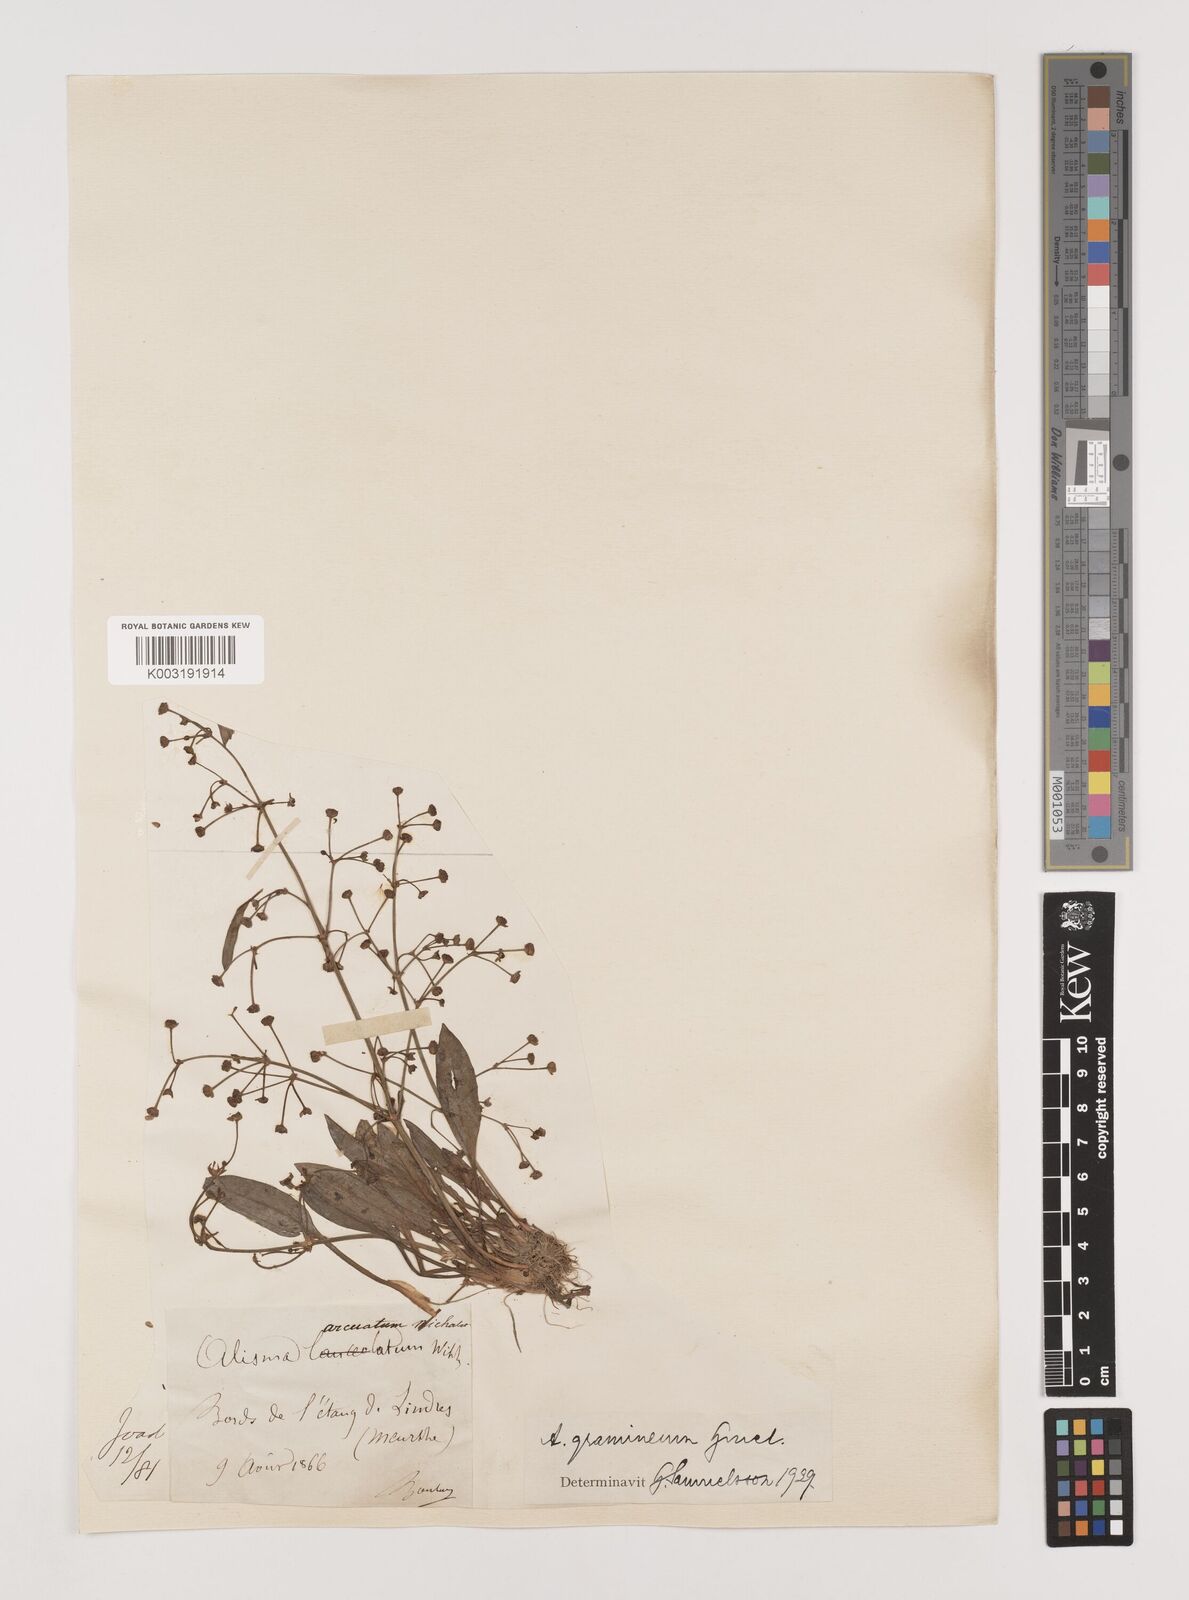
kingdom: Plantae
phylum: Tracheophyta
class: Liliopsida
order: Alismatales
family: Alismataceae
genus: Alisma
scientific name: Alisma gramineum
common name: Ribbon-leaved water-plantain
